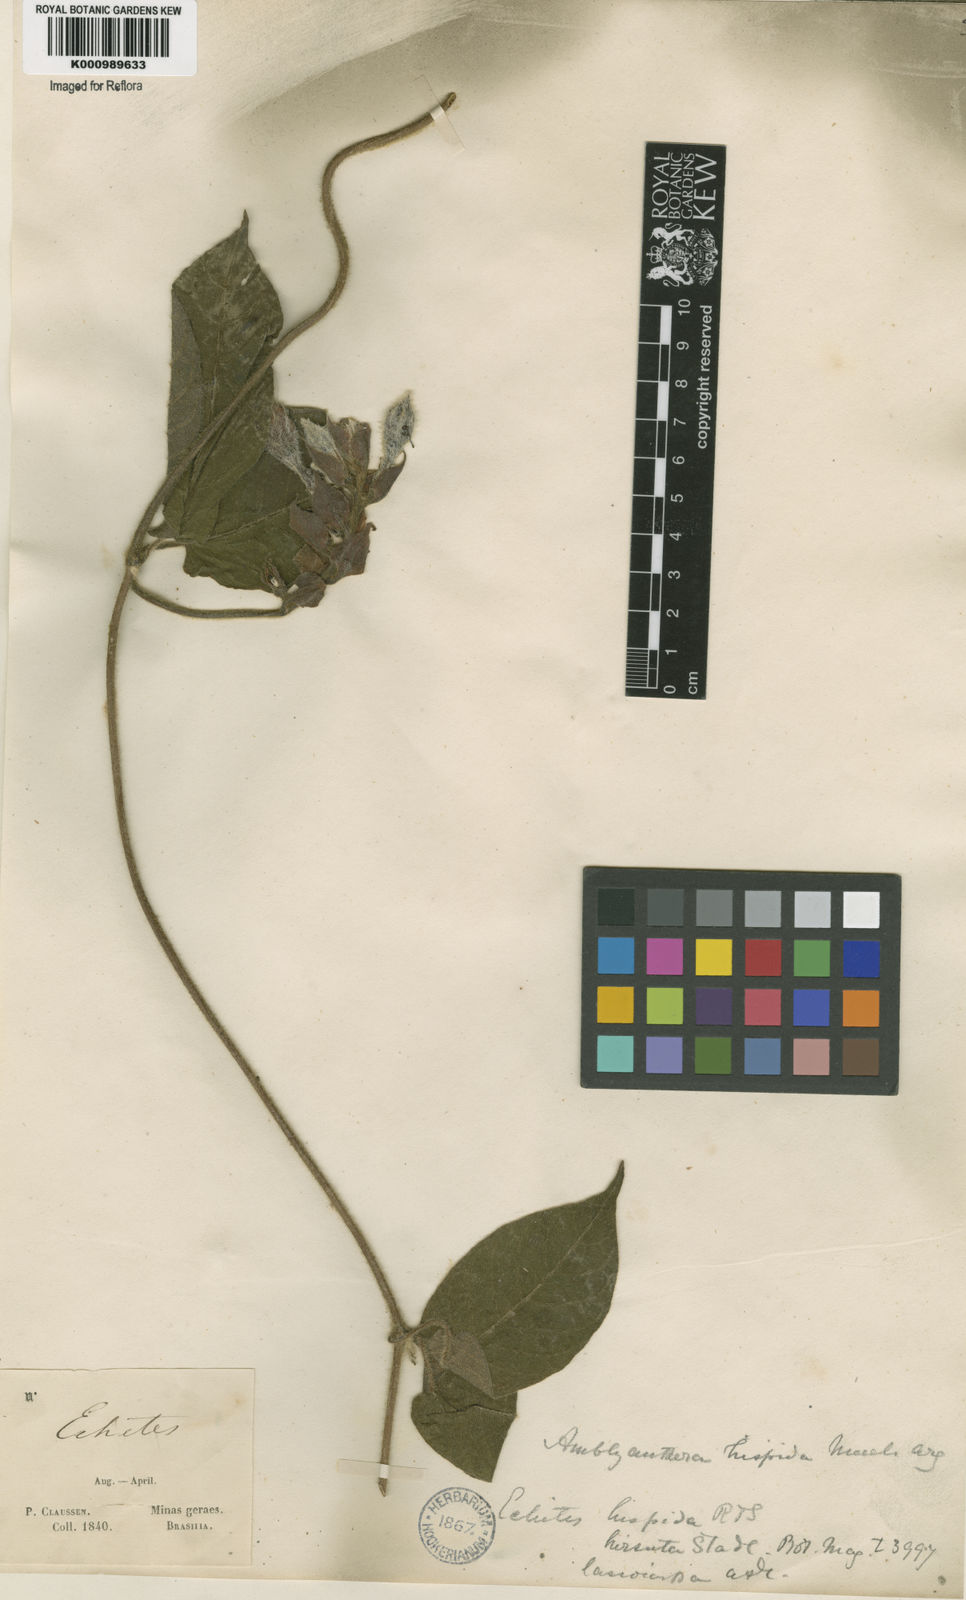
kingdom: Plantae
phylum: Tracheophyta
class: Magnoliopsida
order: Gentianales
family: Apocynaceae
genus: Mandevilla
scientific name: Mandevilla hirsuta
